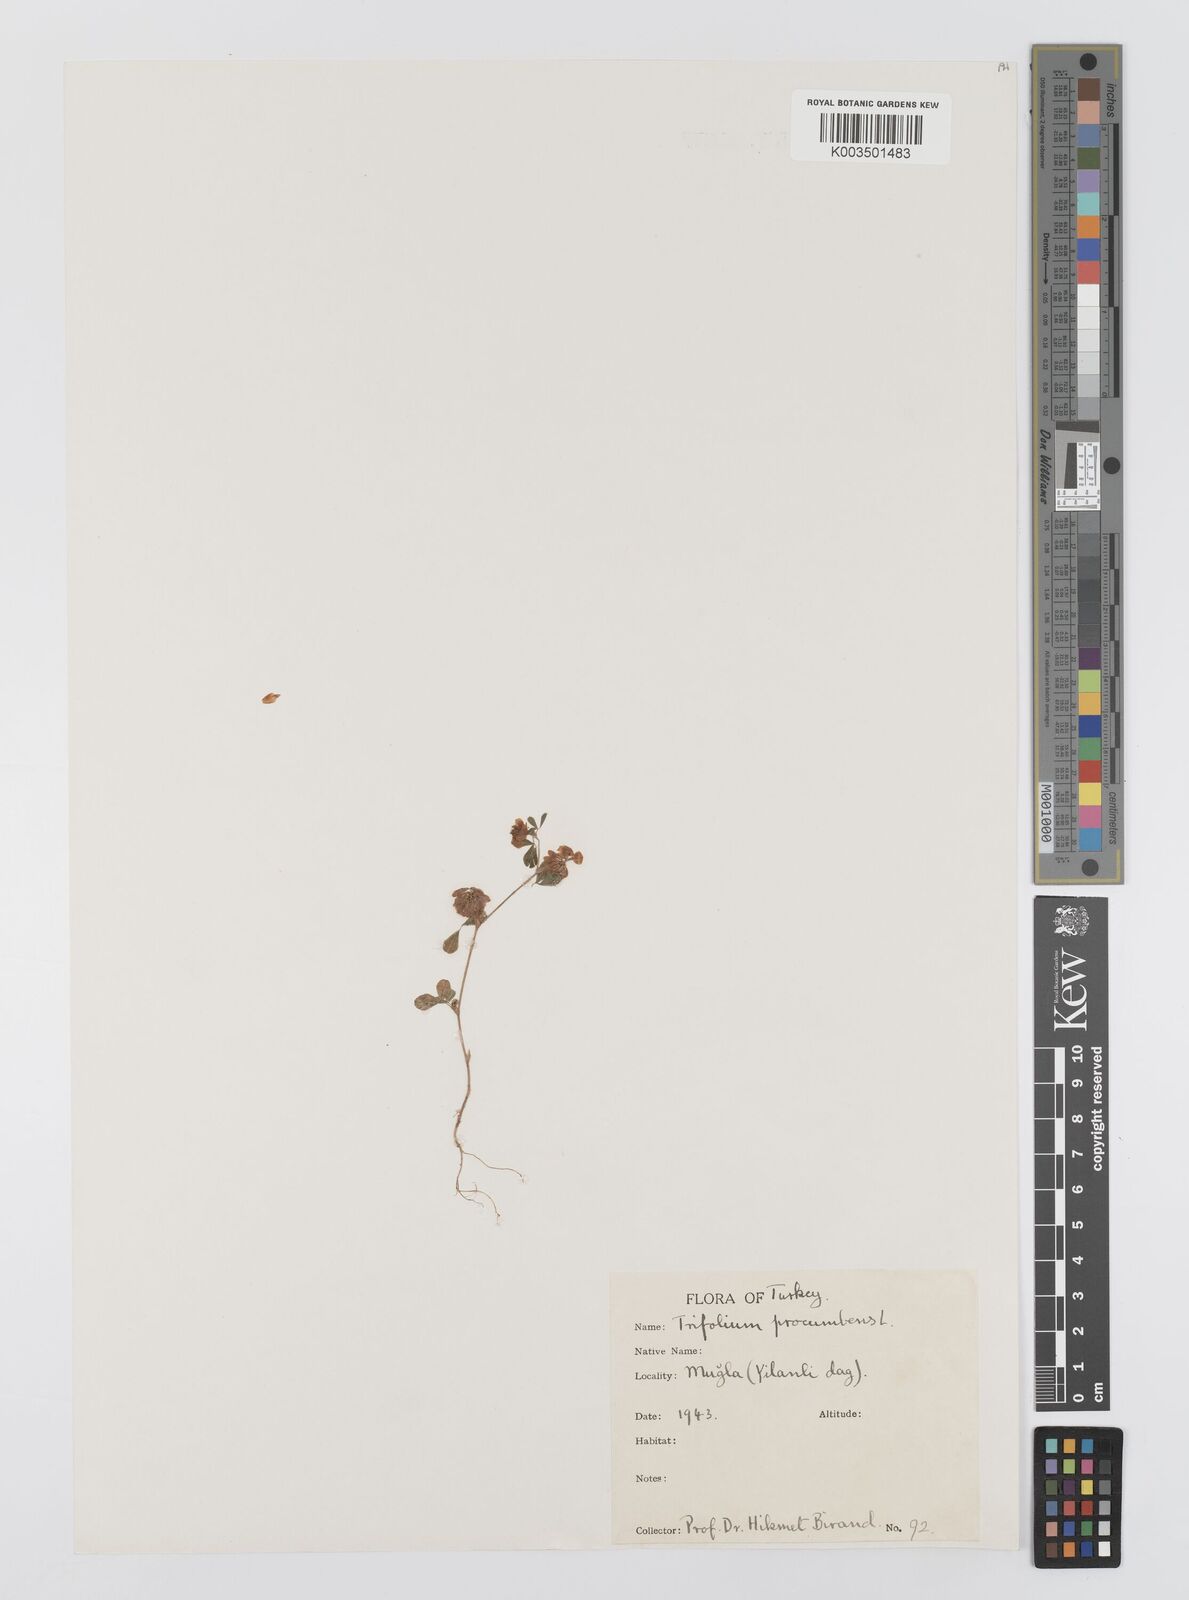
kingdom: Plantae
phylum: Tracheophyta
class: Magnoliopsida
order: Fabales
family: Fabaceae
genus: Trifolium
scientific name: Trifolium campestre
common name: Field clover
